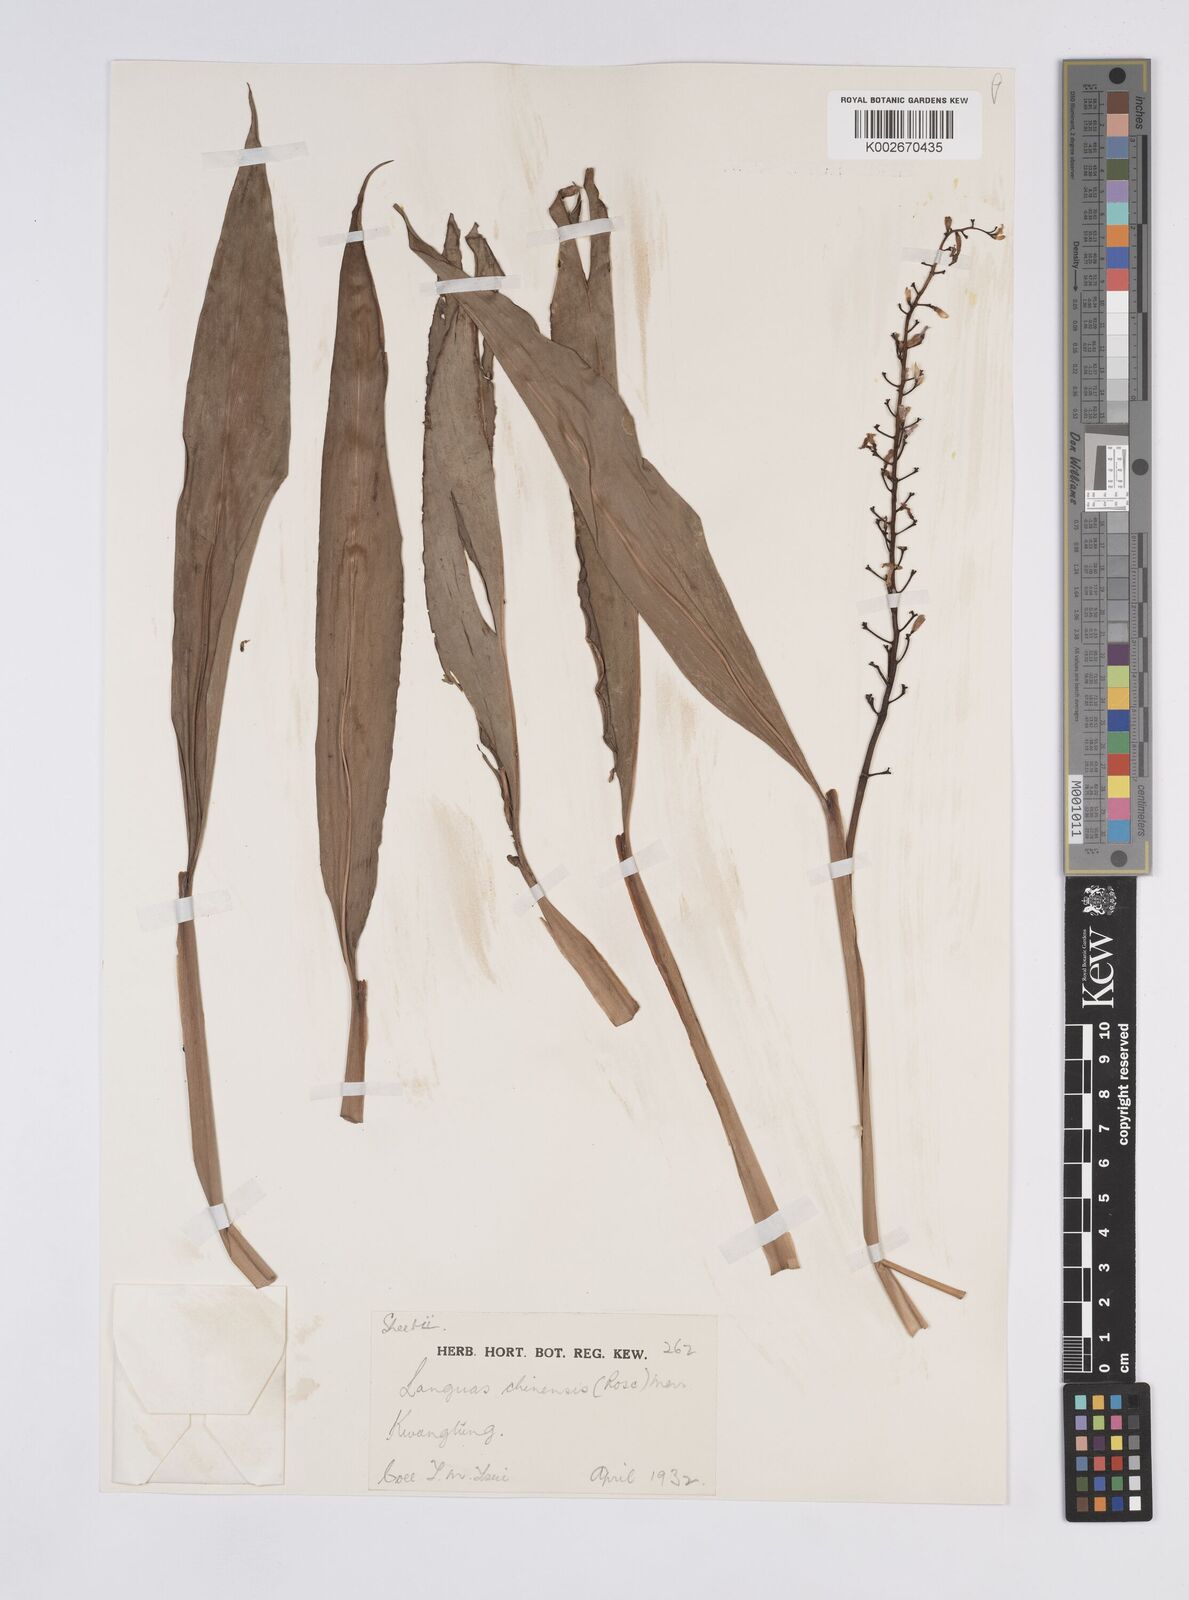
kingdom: Plantae
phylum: Tracheophyta
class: Liliopsida
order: Zingiberales
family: Zingiberaceae
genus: Alpinia
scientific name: Alpinia chinensis
